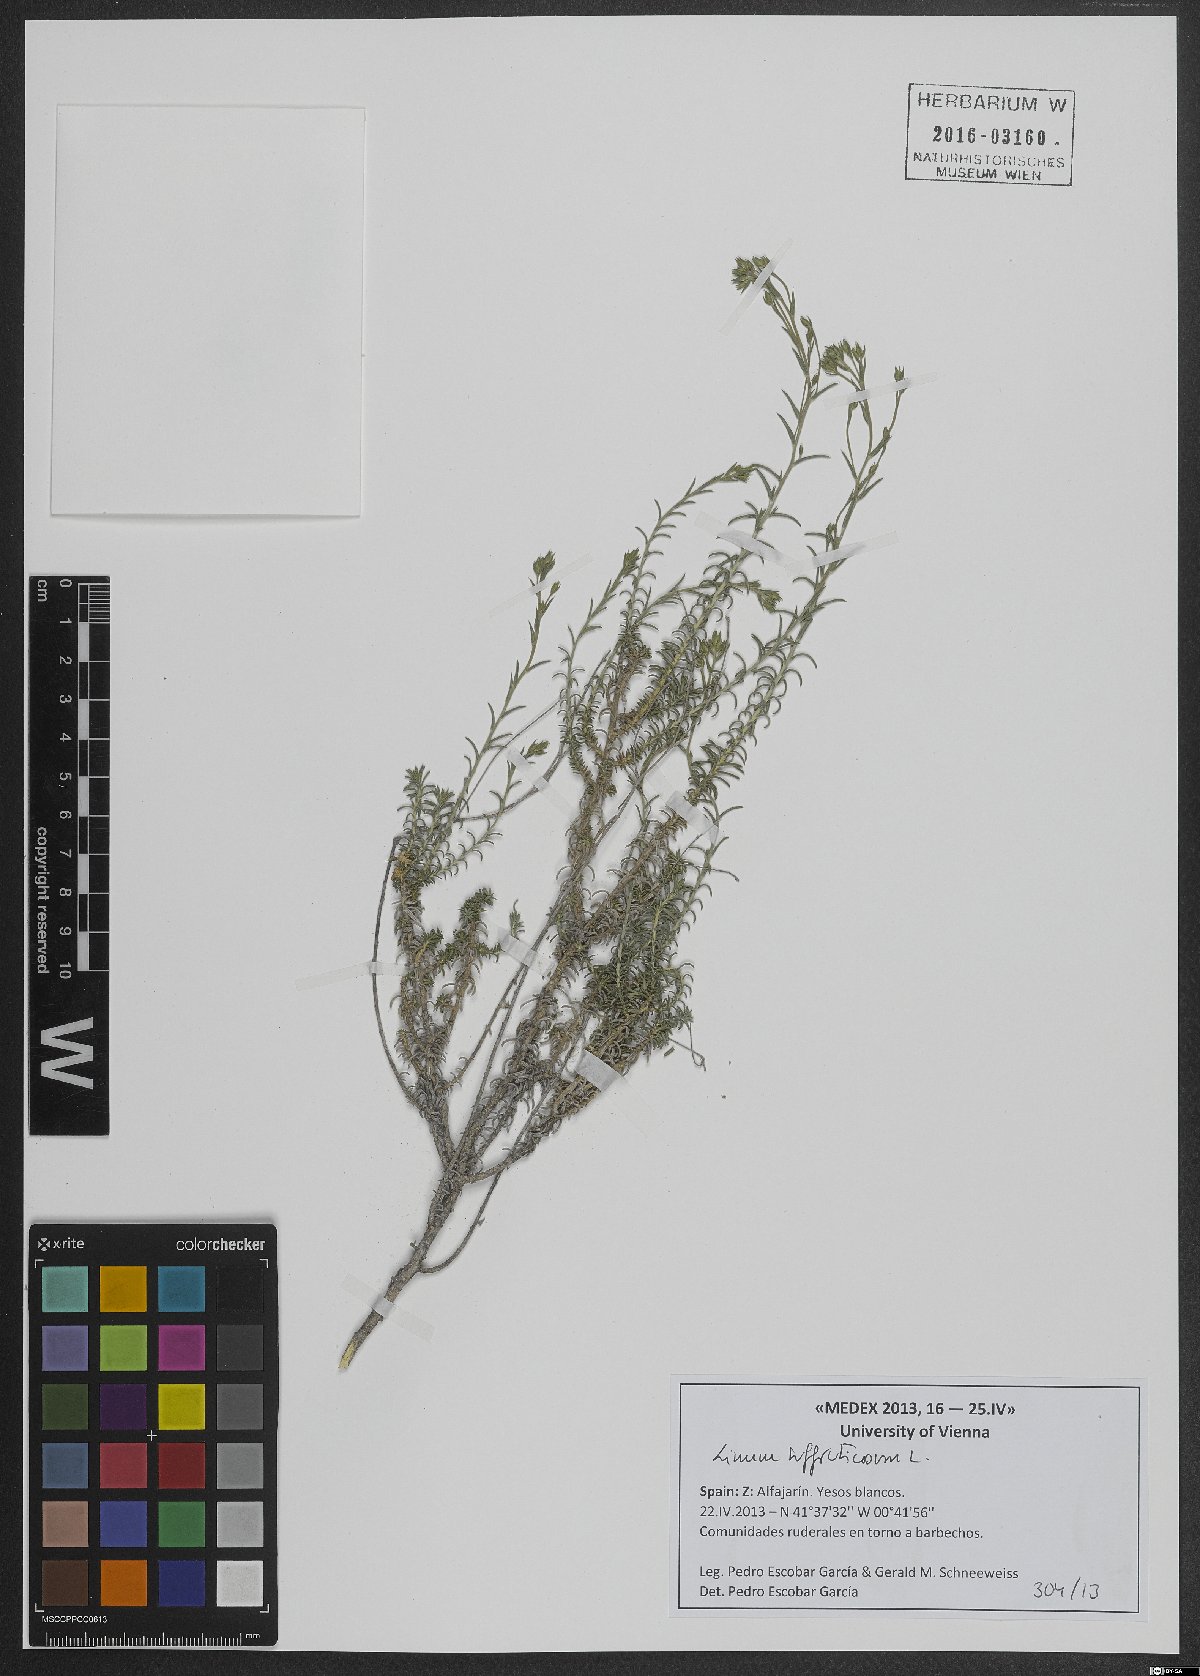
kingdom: Plantae
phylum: Tracheophyta
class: Magnoliopsida
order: Malpighiales
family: Linaceae
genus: Linum
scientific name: Linum suffruticosum
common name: White flax
